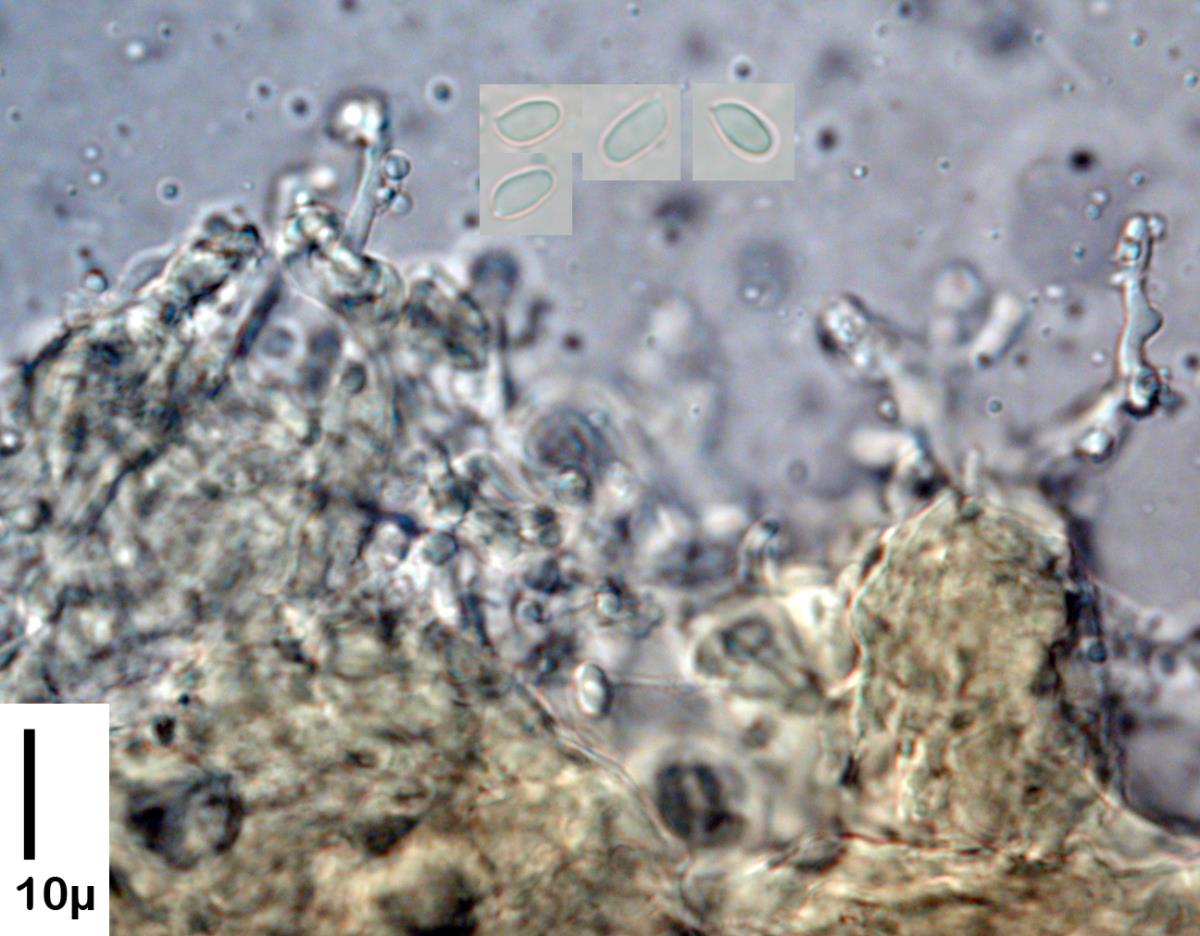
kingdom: Fungi
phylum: Basidiomycota
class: Agaricomycetes
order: Agaricales
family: Tricholomataceae
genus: Clitocybe
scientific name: Clitocybe brunneoceracea
